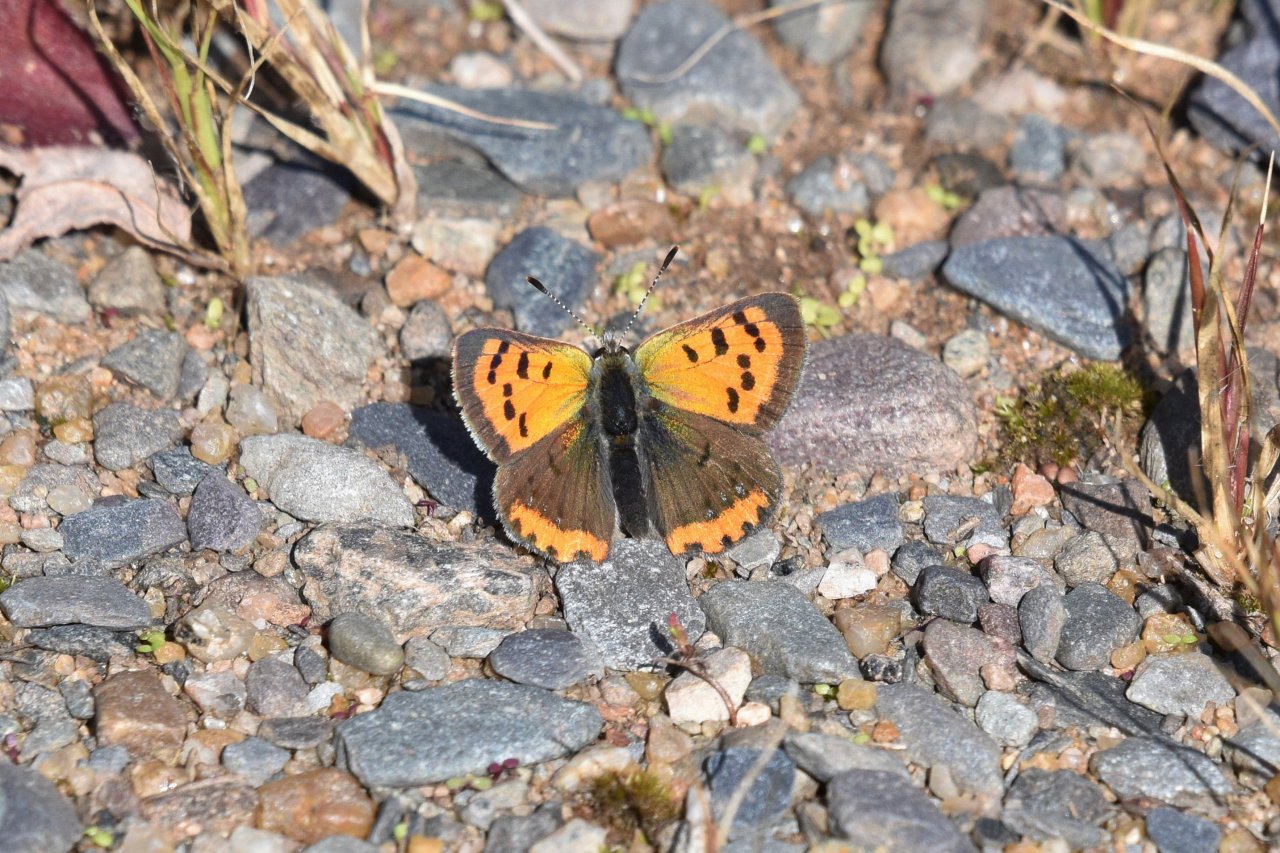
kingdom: Animalia
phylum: Arthropoda
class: Insecta
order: Lepidoptera
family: Lycaenidae
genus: Lycaena
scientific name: Lycaena phlaeas
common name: American Copper
